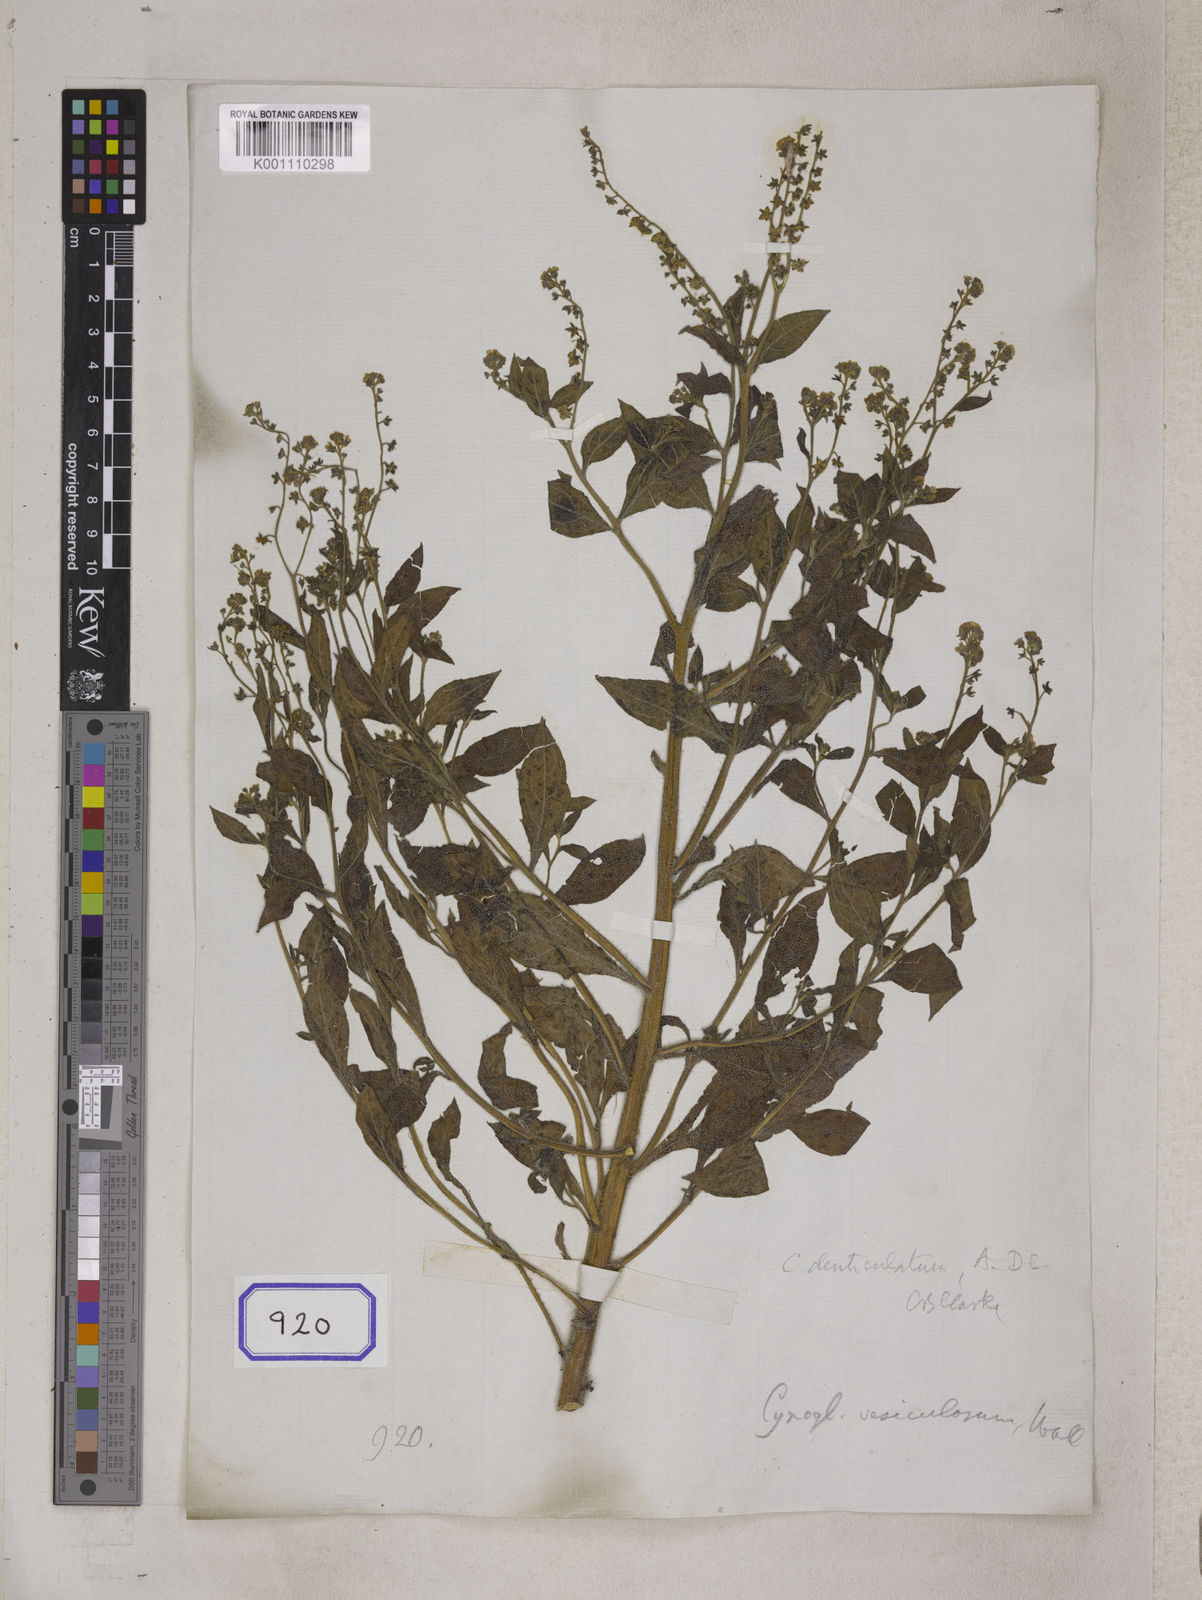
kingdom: Plantae
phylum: Tracheophyta
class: Magnoliopsida
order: Boraginales
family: Boraginaceae
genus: Cynoglossum
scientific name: Cynoglossum
